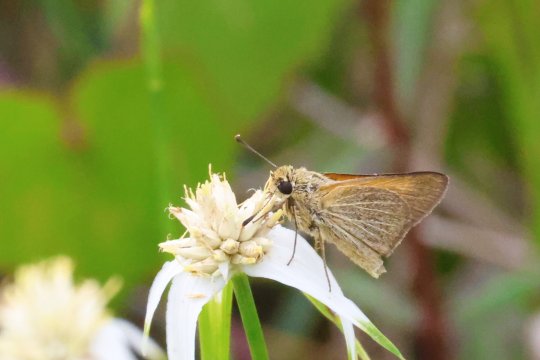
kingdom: Animalia
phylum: Arthropoda
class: Insecta
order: Lepidoptera
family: Hesperiidae
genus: Atrytone
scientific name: Atrytone arogos
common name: Arogos Skipper
